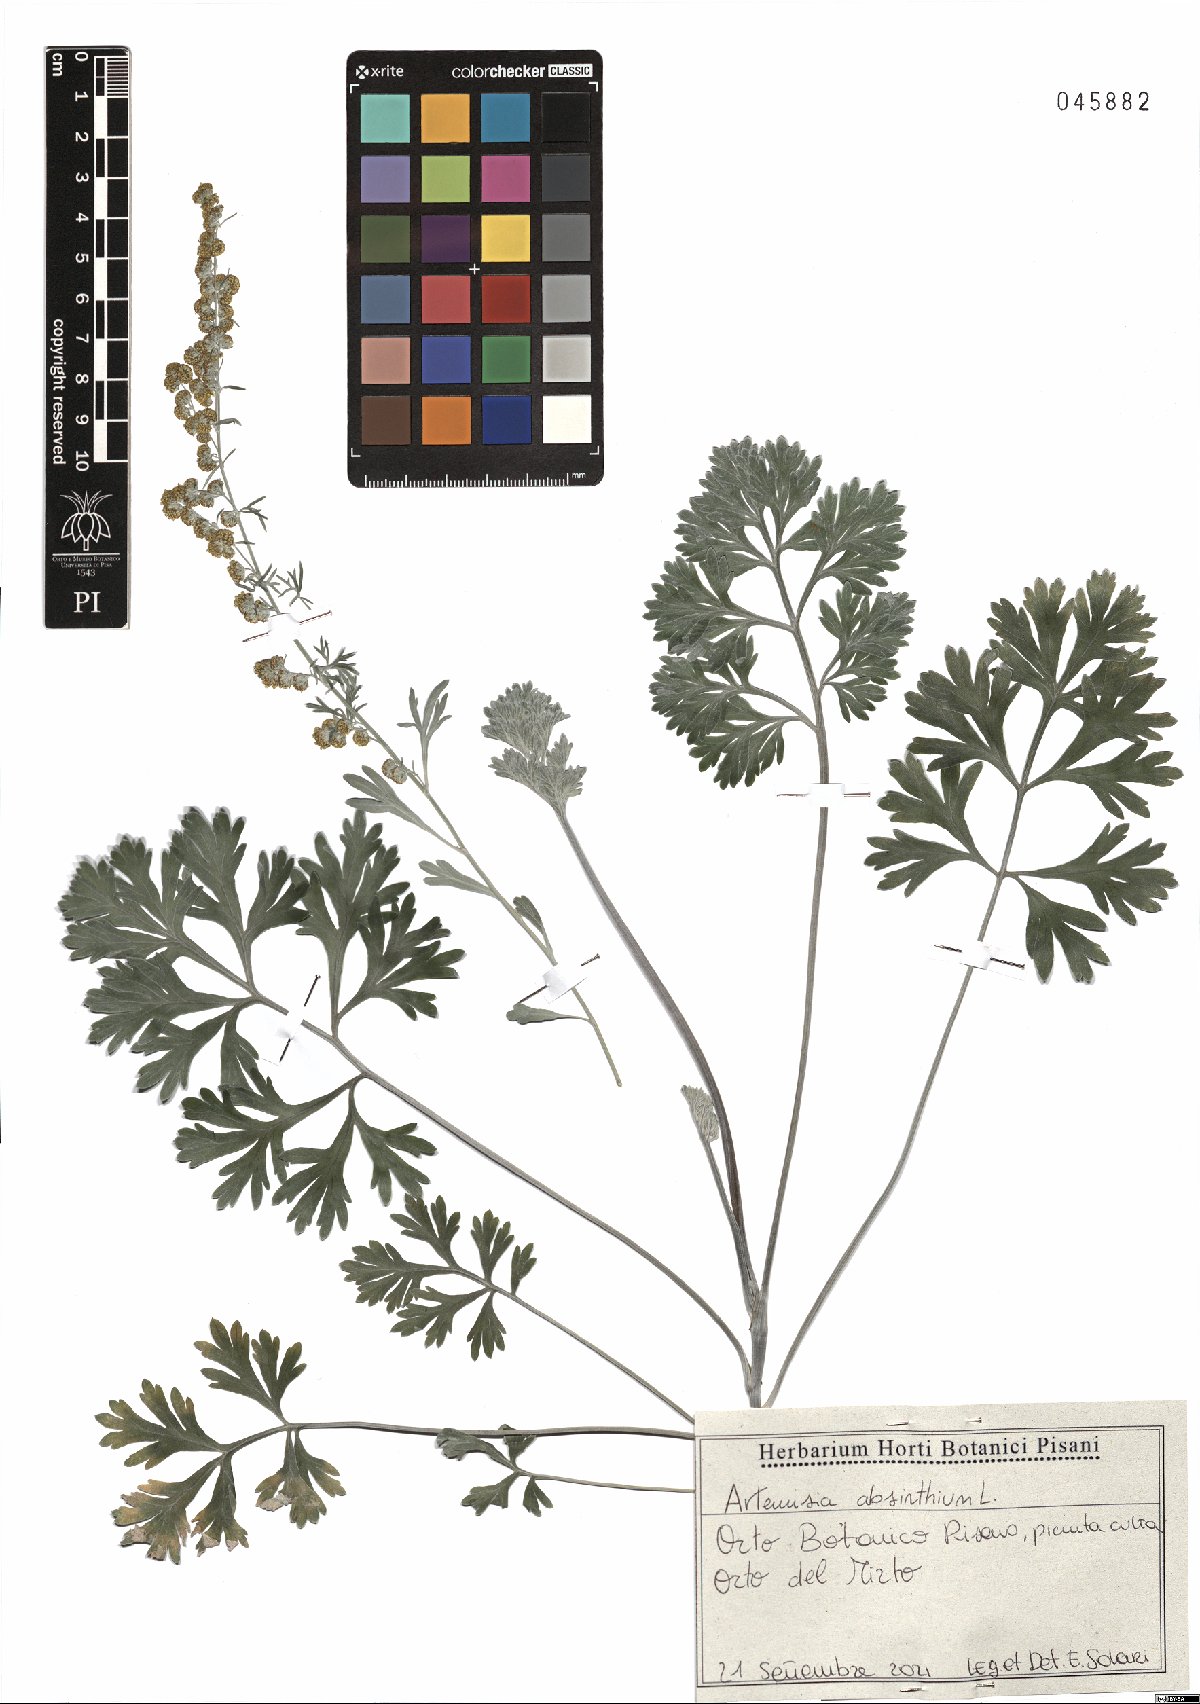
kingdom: Plantae
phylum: Tracheophyta
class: Magnoliopsida
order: Asterales
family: Asteraceae
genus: Artemisia
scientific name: Artemisia absinthium
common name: Wormwood
